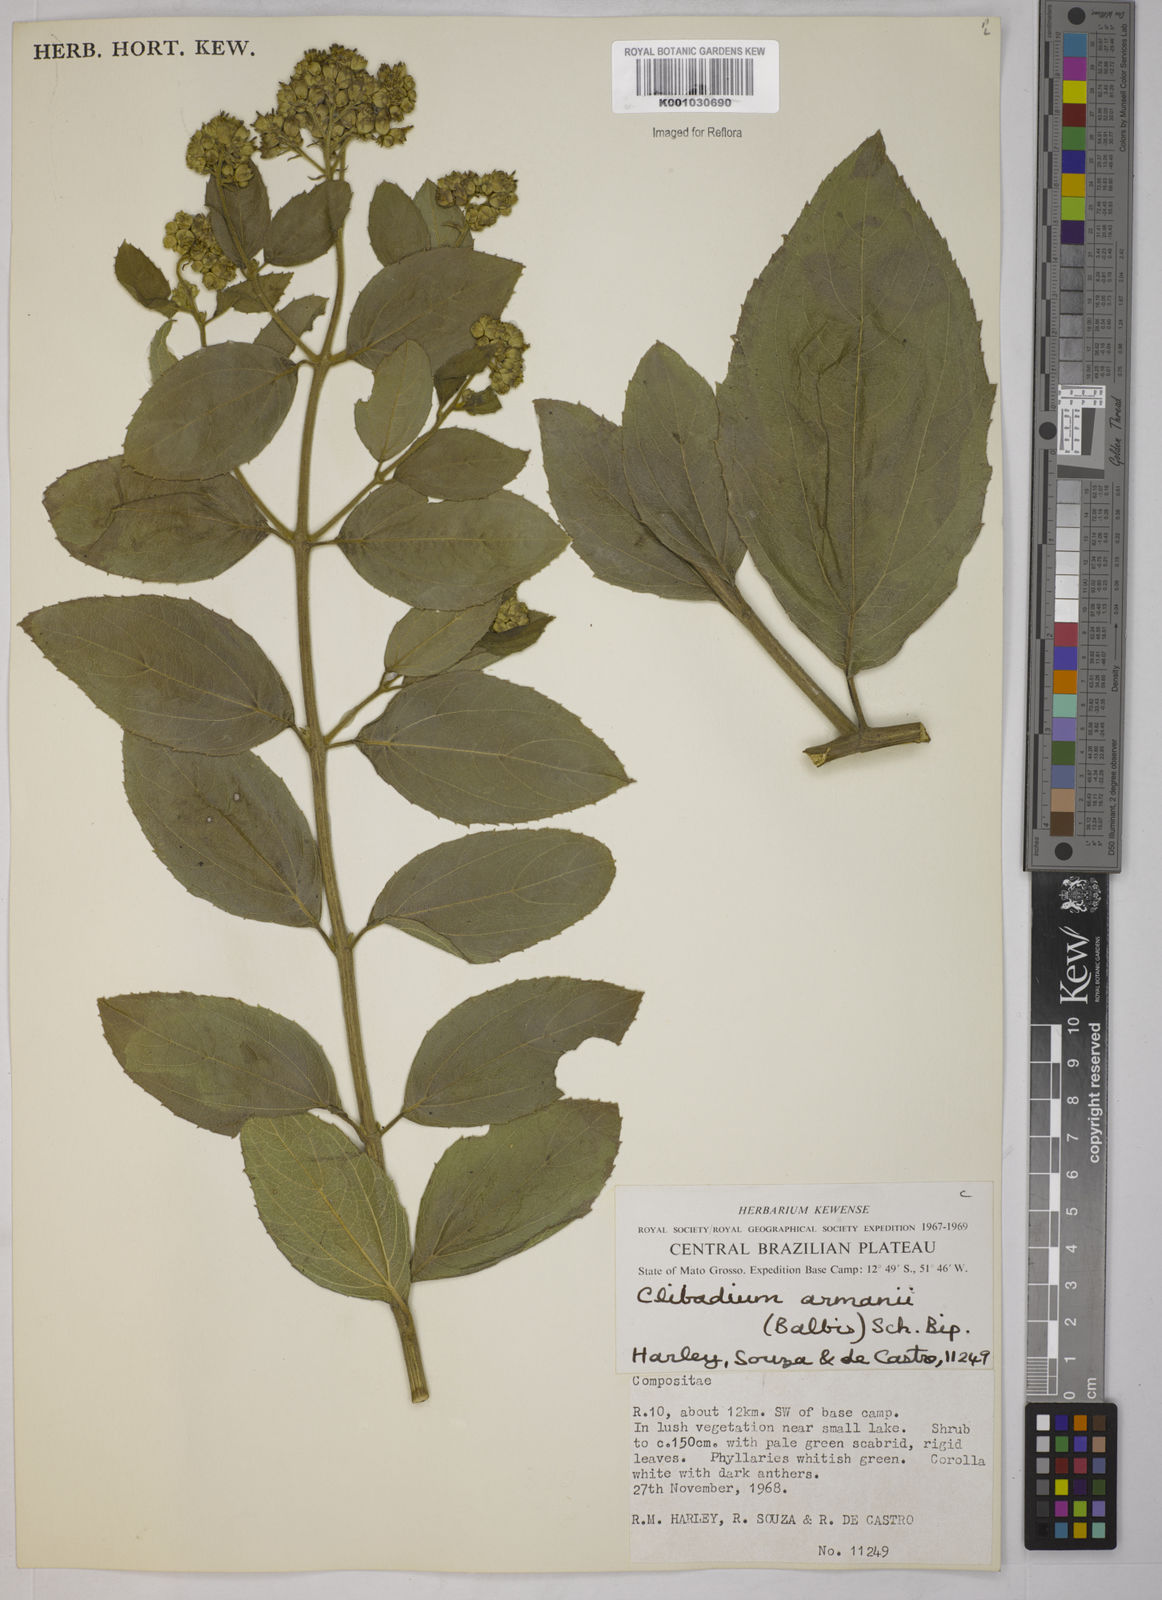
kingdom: Plantae
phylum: Tracheophyta
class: Magnoliopsida
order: Asterales
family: Asteraceae
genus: Clibadium
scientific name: Clibadium armanii
